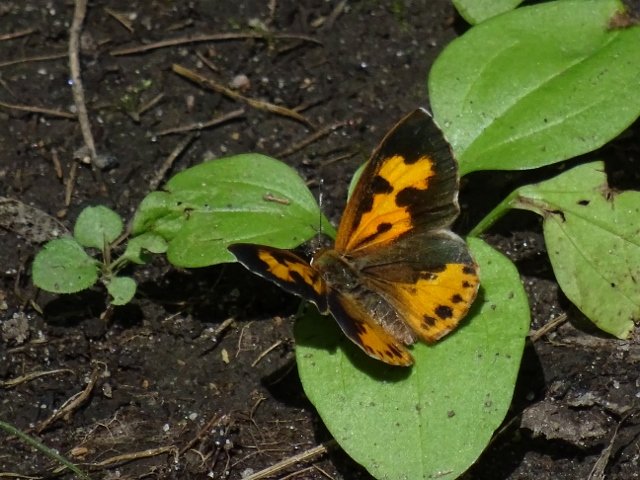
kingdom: Animalia
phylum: Arthropoda
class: Insecta
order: Lepidoptera
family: Lycaenidae
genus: Feniseca
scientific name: Feniseca tarquinius
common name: Harvester
